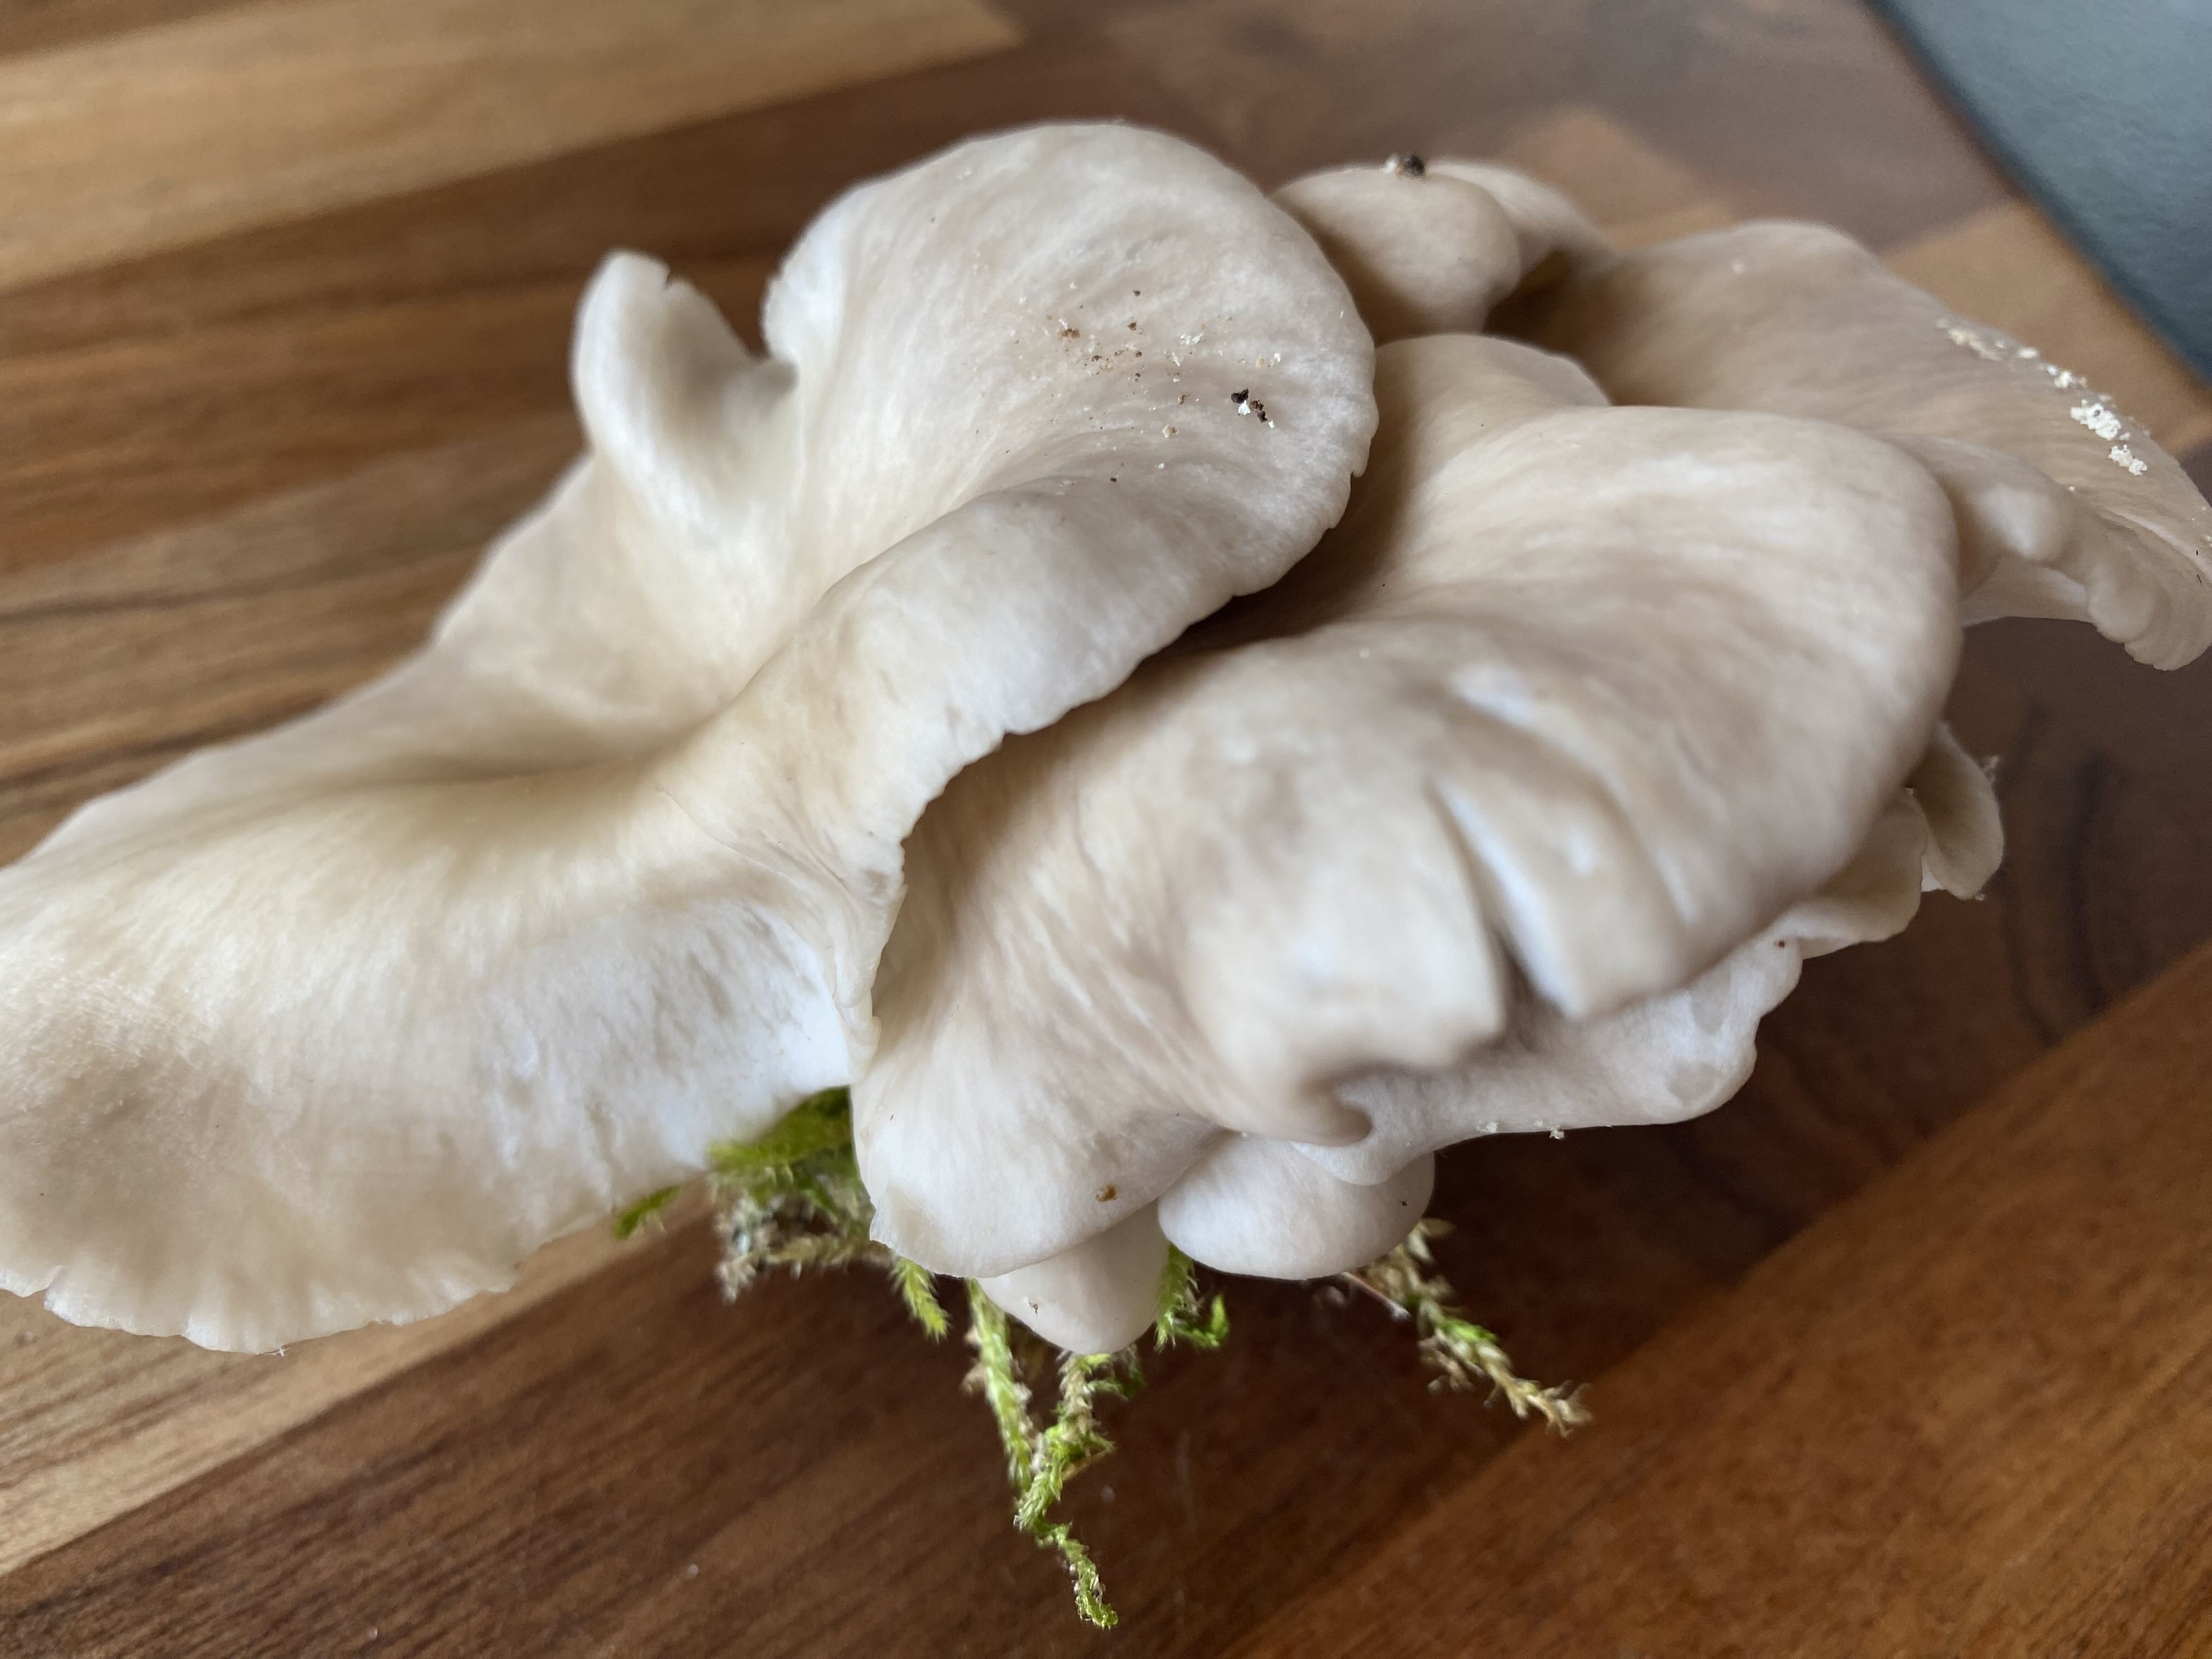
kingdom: Fungi
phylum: Basidiomycota
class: Agaricomycetes
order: Agaricales
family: Pleurotaceae
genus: Pleurotus
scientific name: Pleurotus pulmonarius
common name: sommer-østershat
